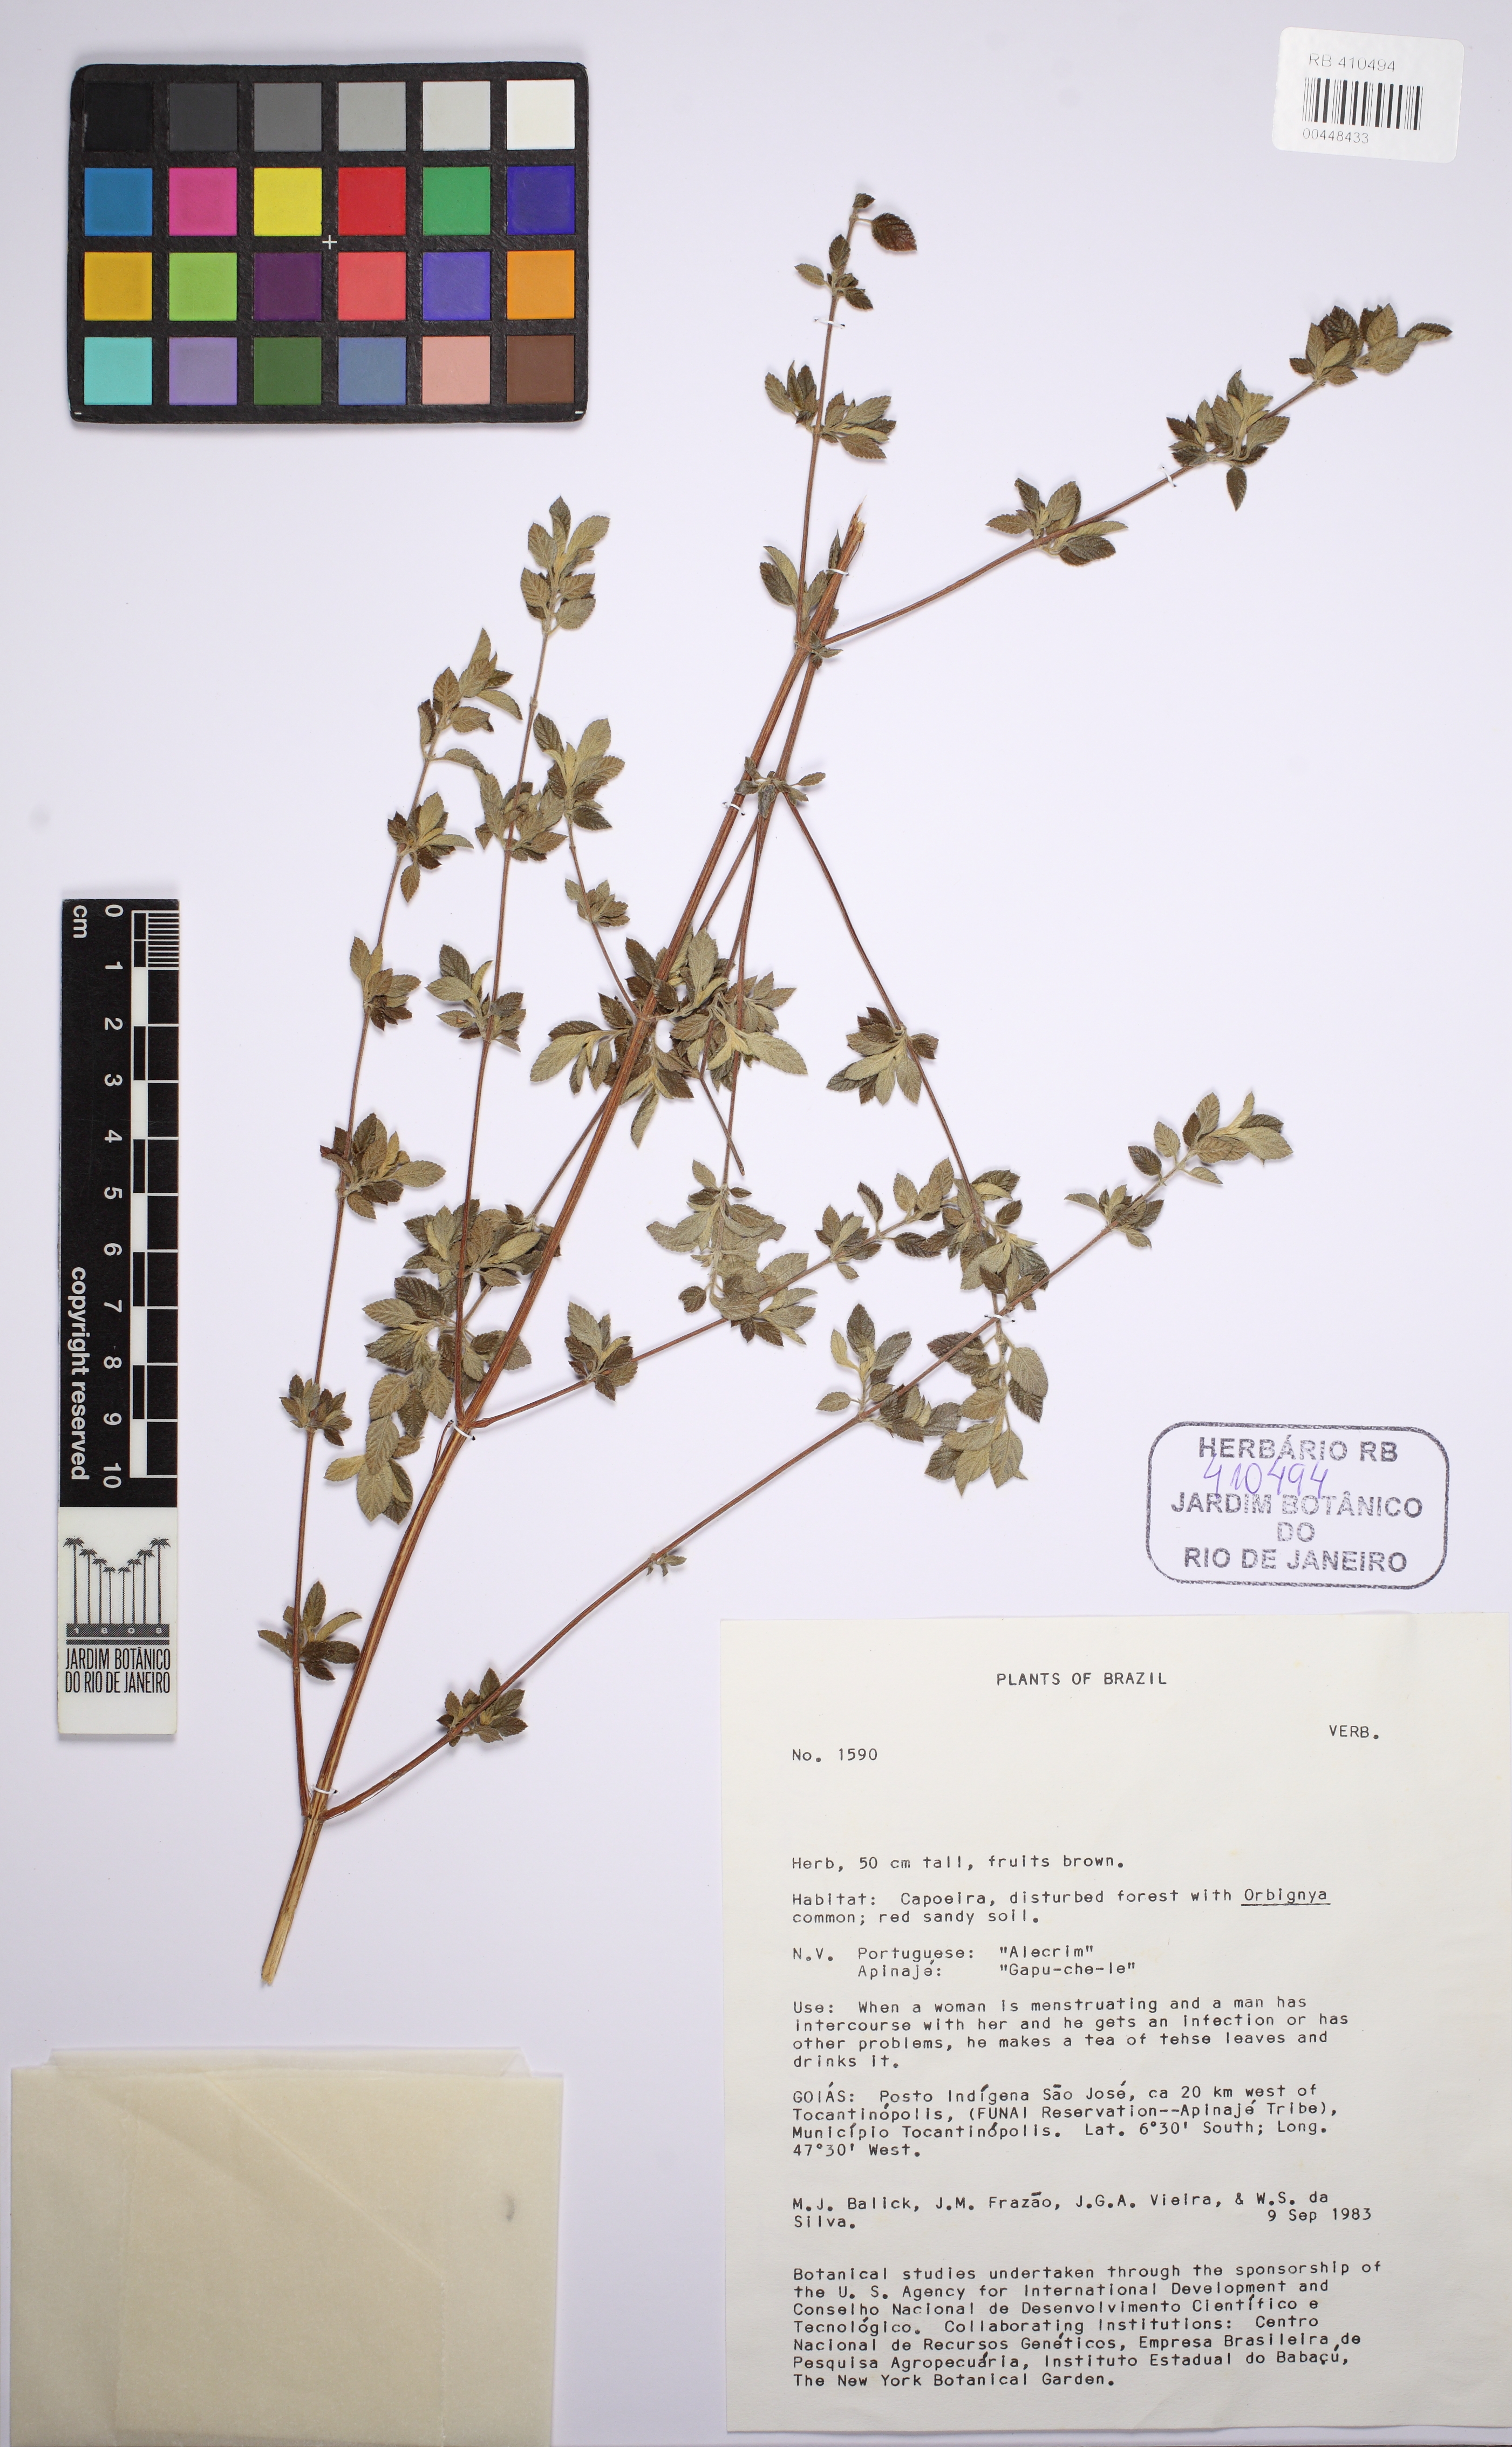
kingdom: Plantae
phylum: Tracheophyta
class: Magnoliopsida
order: Lamiales
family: Verbenaceae
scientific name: Verbenaceae
